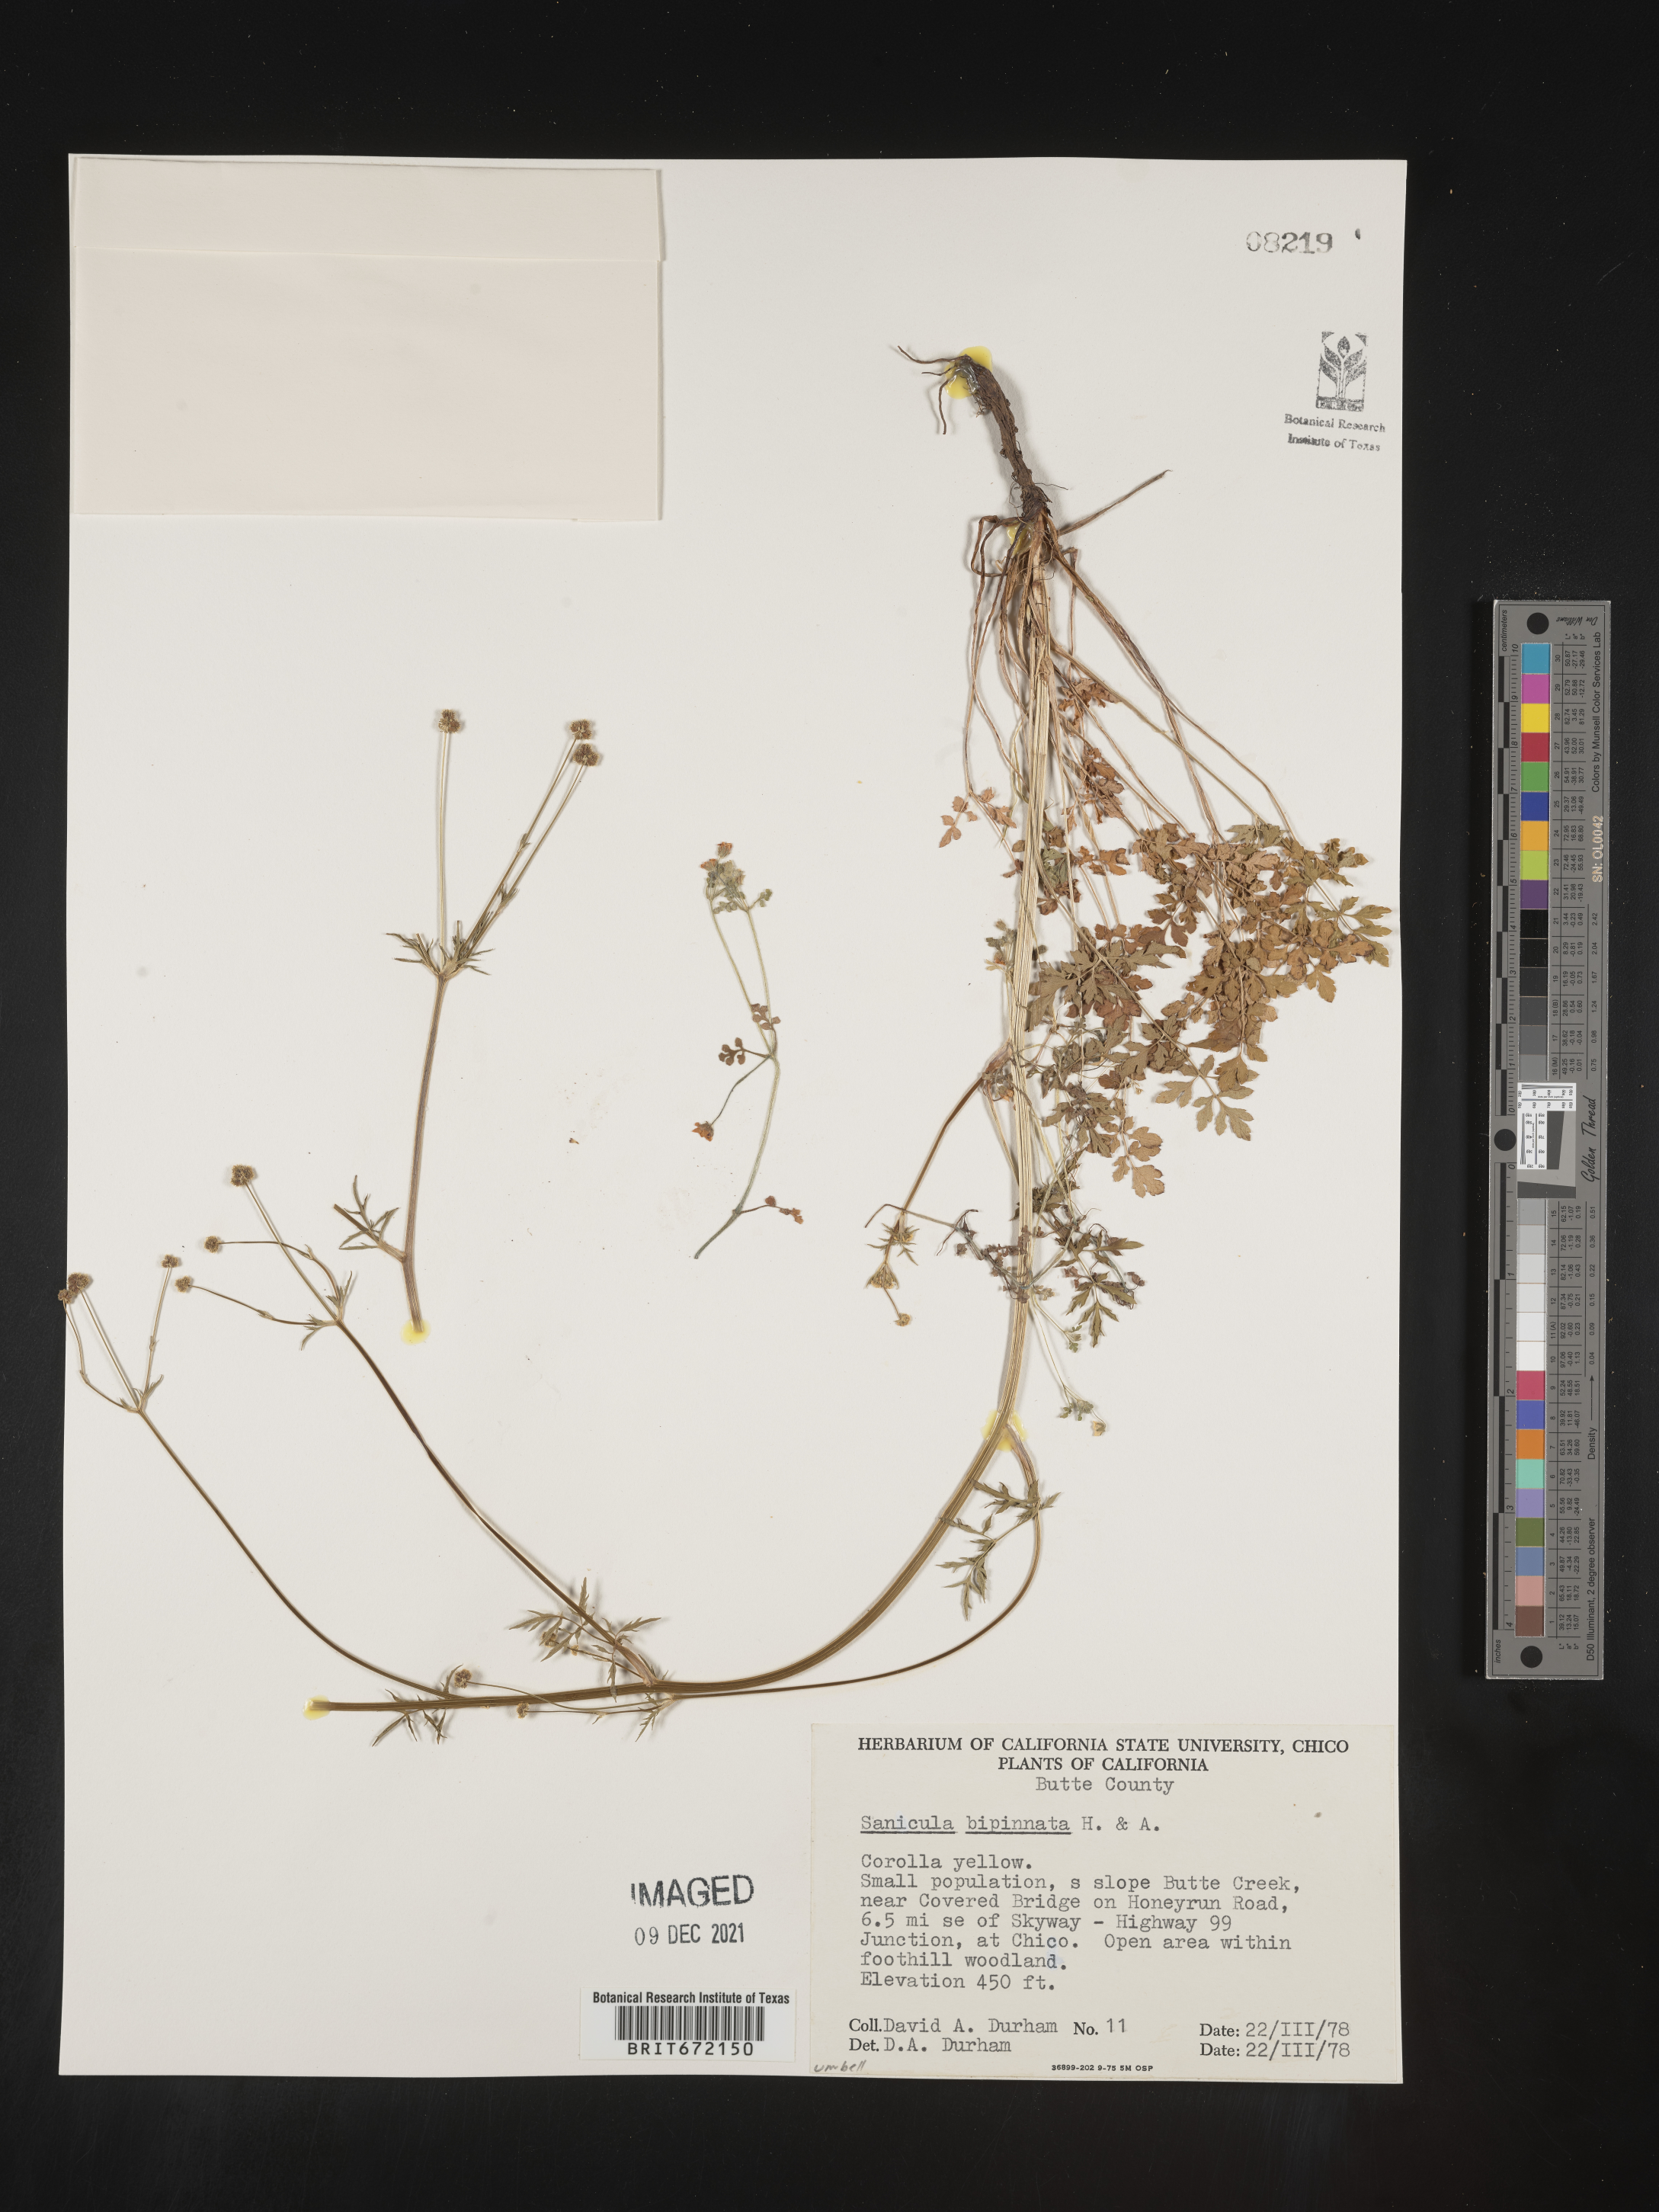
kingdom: Plantae
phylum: Tracheophyta
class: Magnoliopsida
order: Apiales
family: Apiaceae
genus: Sanicula
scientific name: Sanicula
